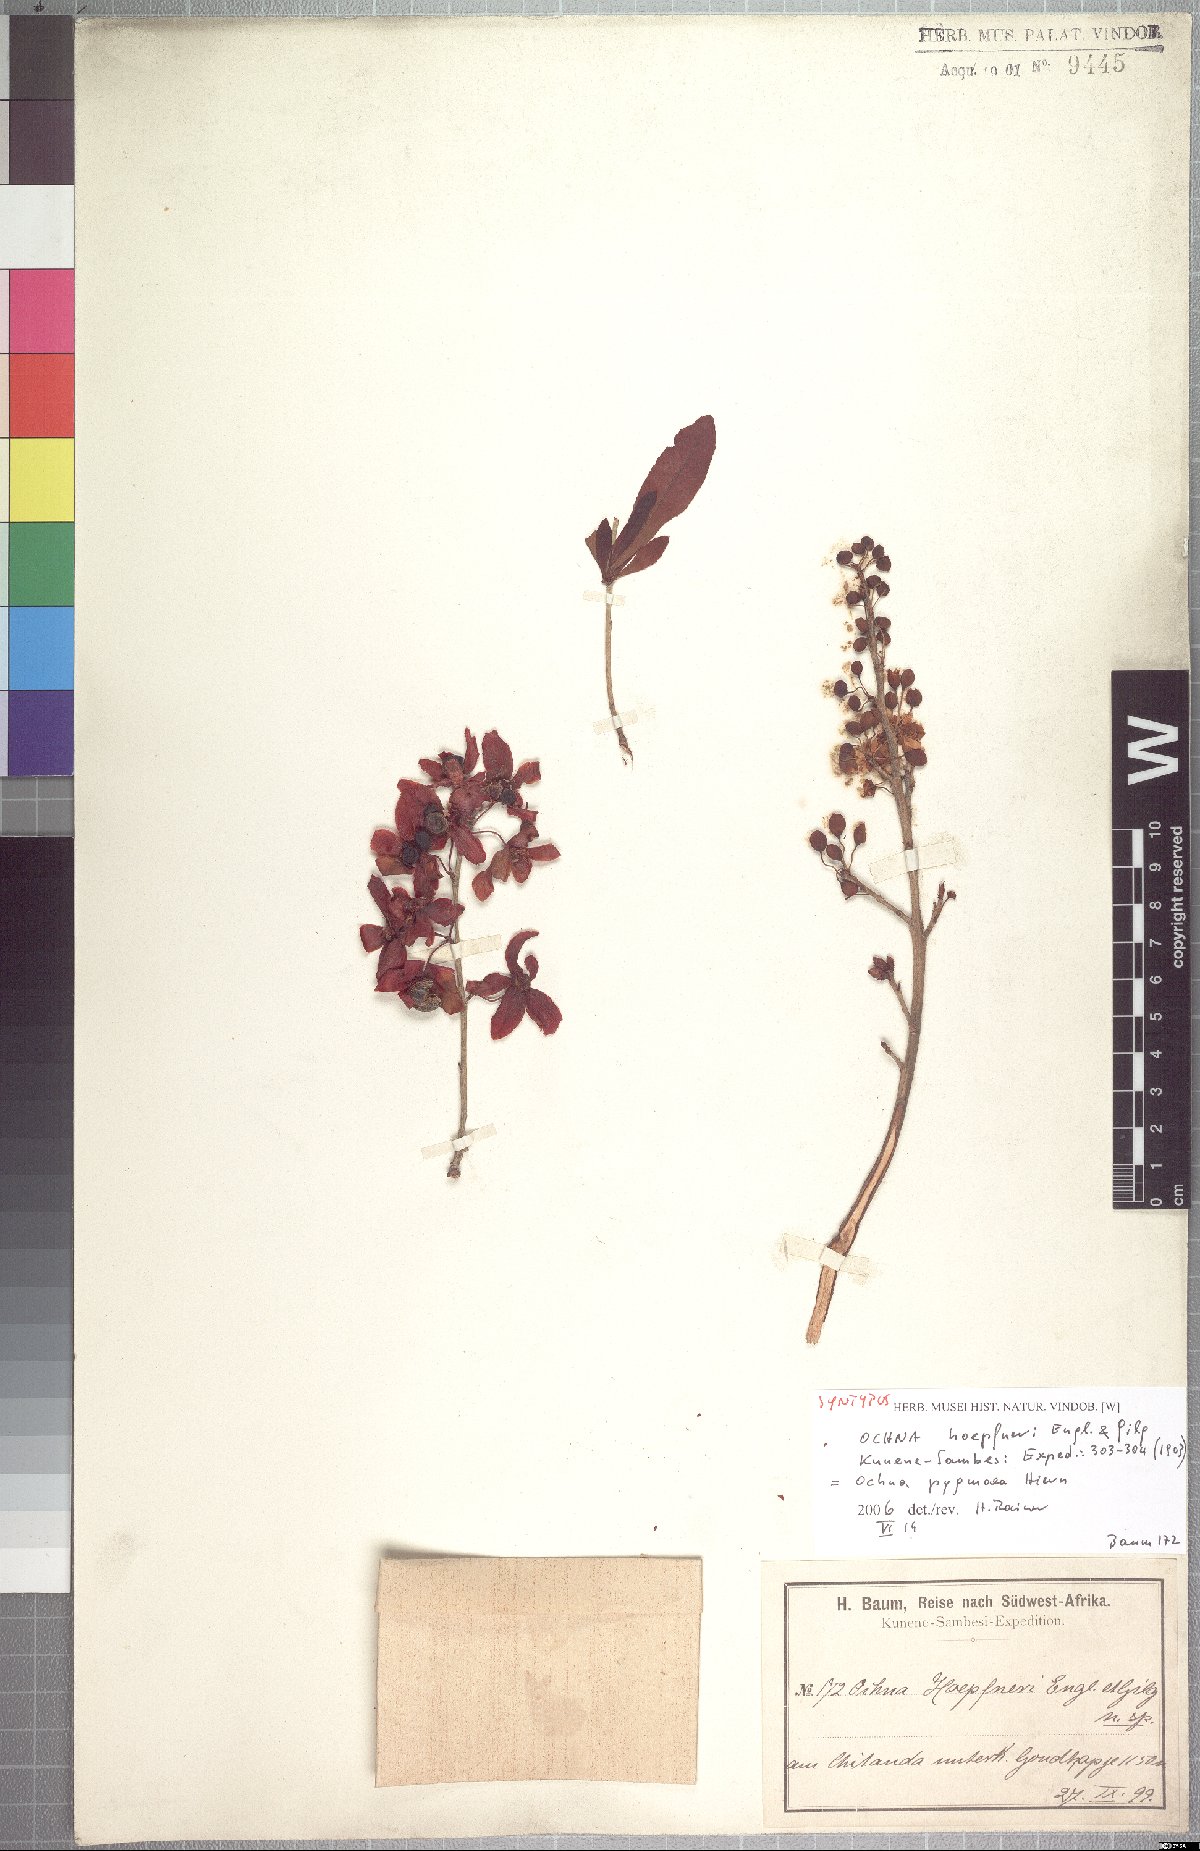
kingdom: Plantae
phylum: Tracheophyta
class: Magnoliopsida
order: Malpighiales
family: Ochnaceae
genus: Ochna
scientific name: Ochna pygmaea
